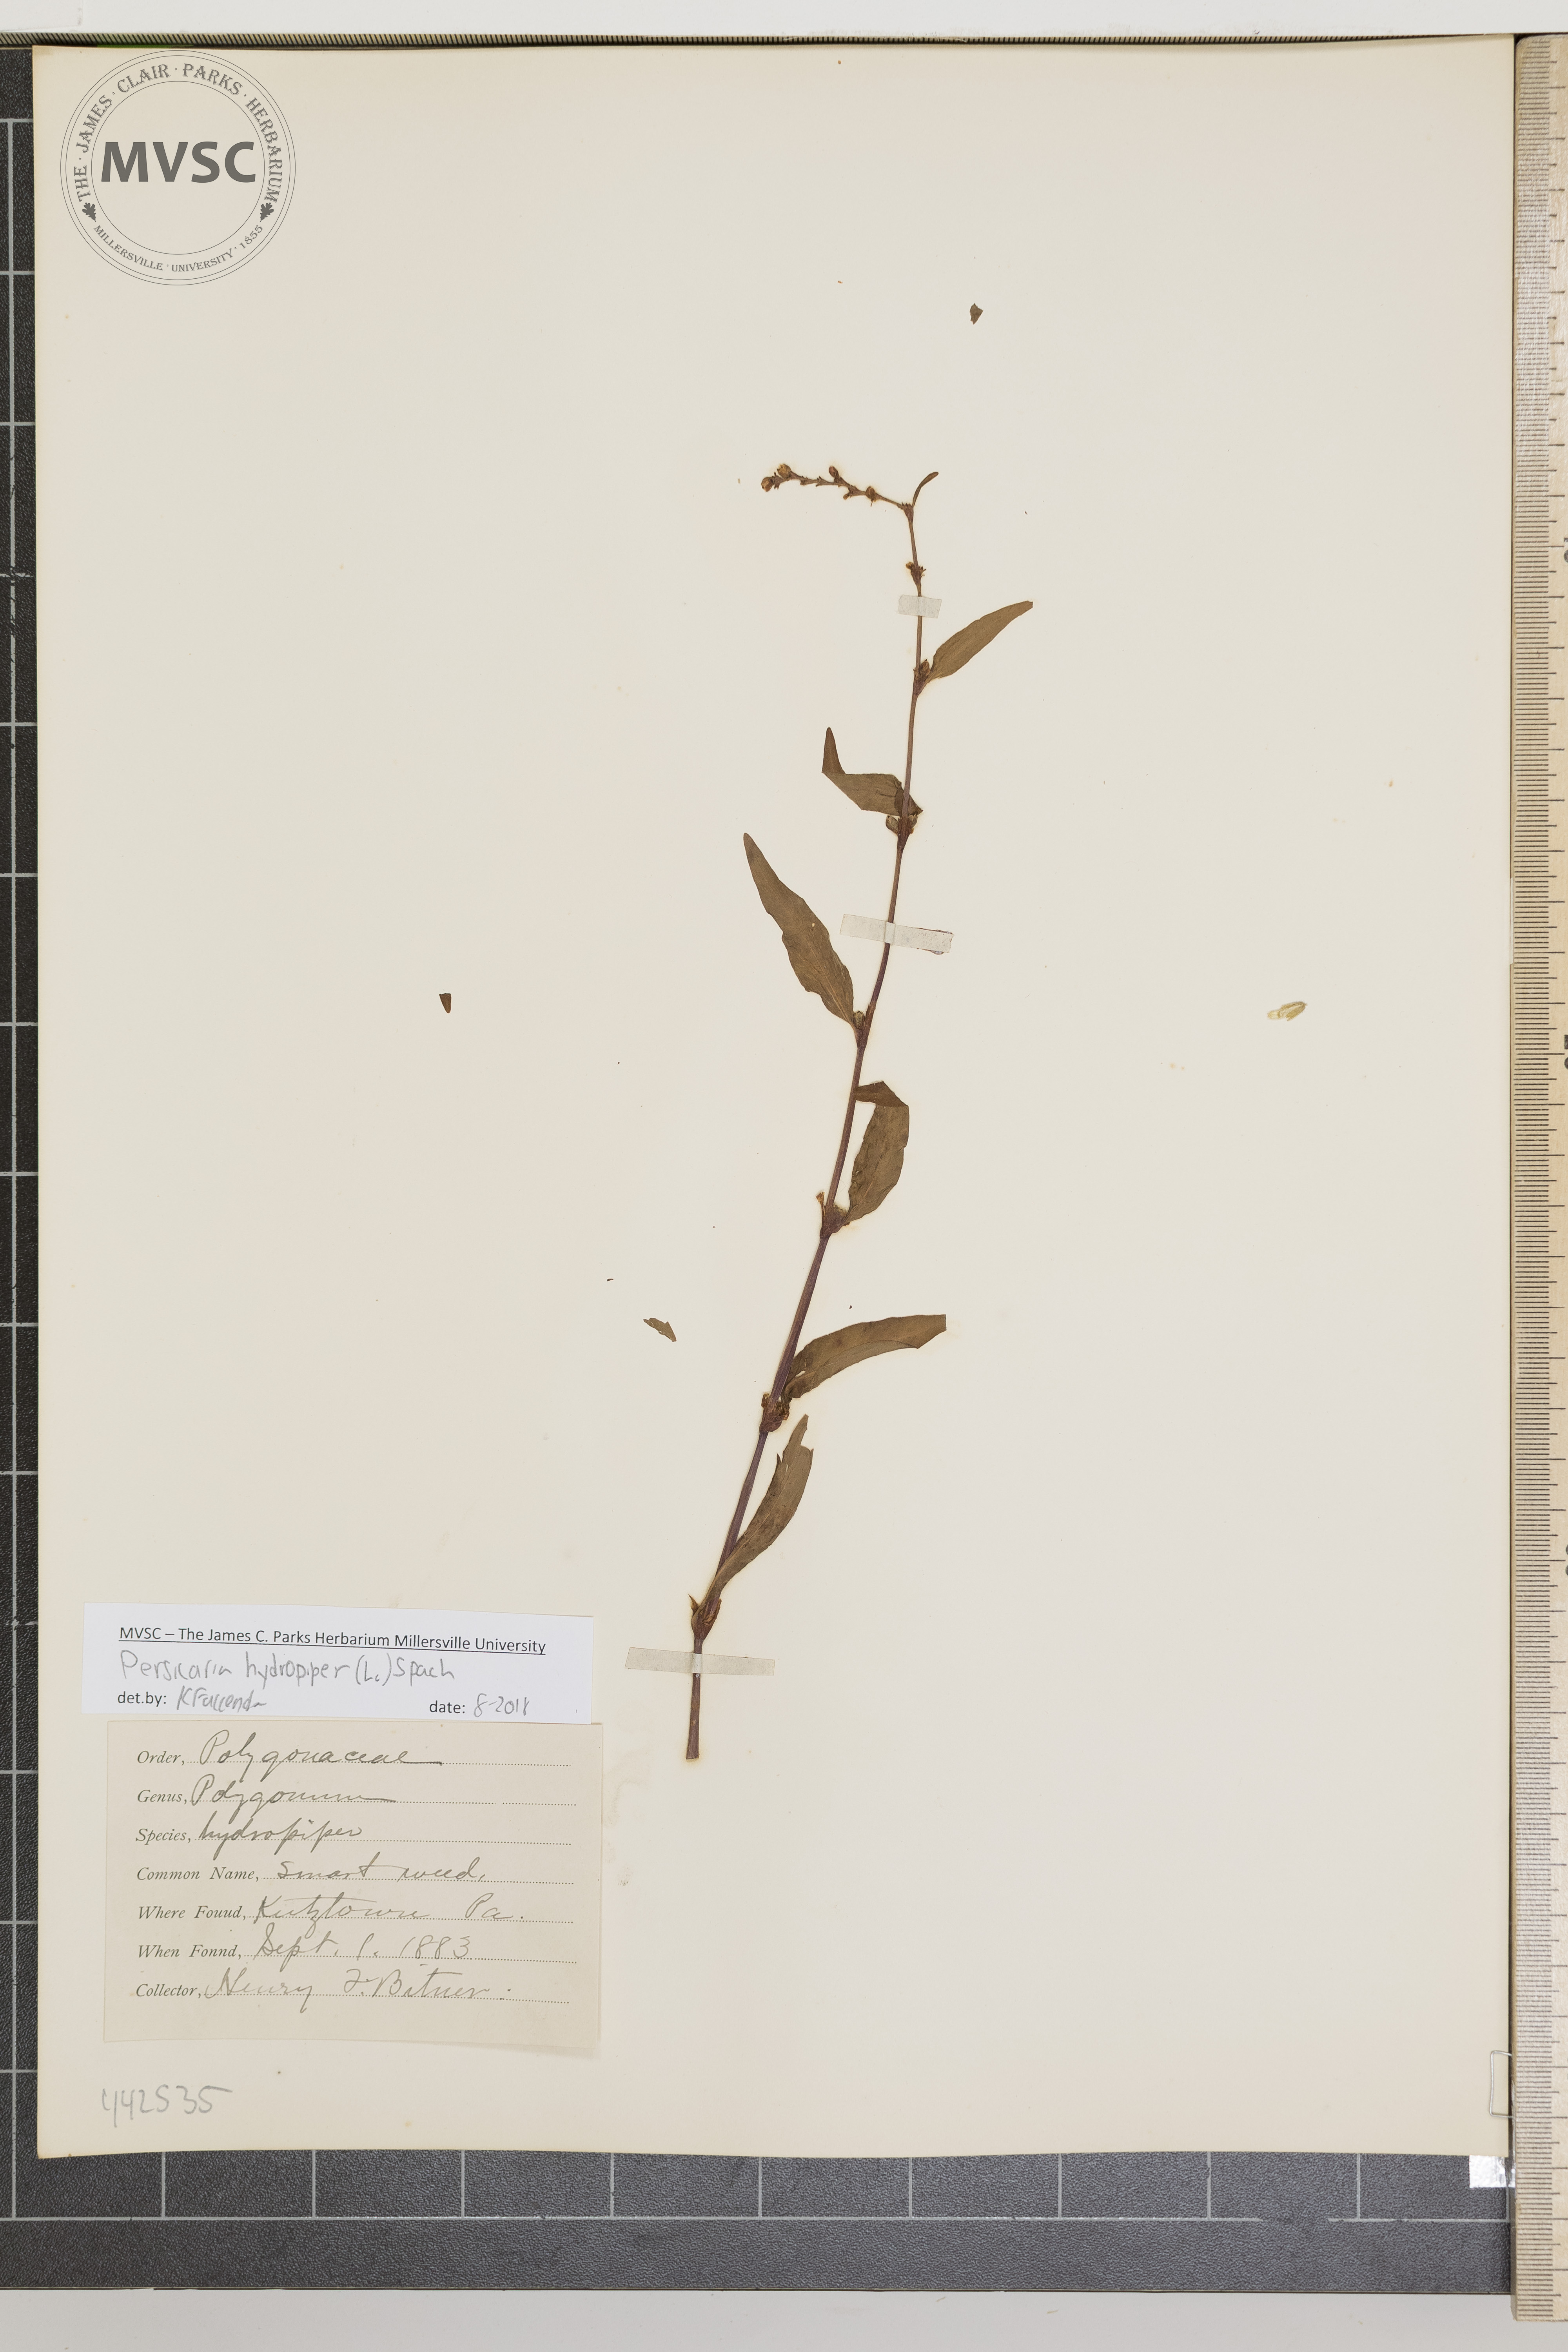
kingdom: Plantae
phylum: Tracheophyta
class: Magnoliopsida
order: Caryophyllales
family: Polygonaceae
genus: Persicaria
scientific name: Persicaria hydropiper
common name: Smartweed
